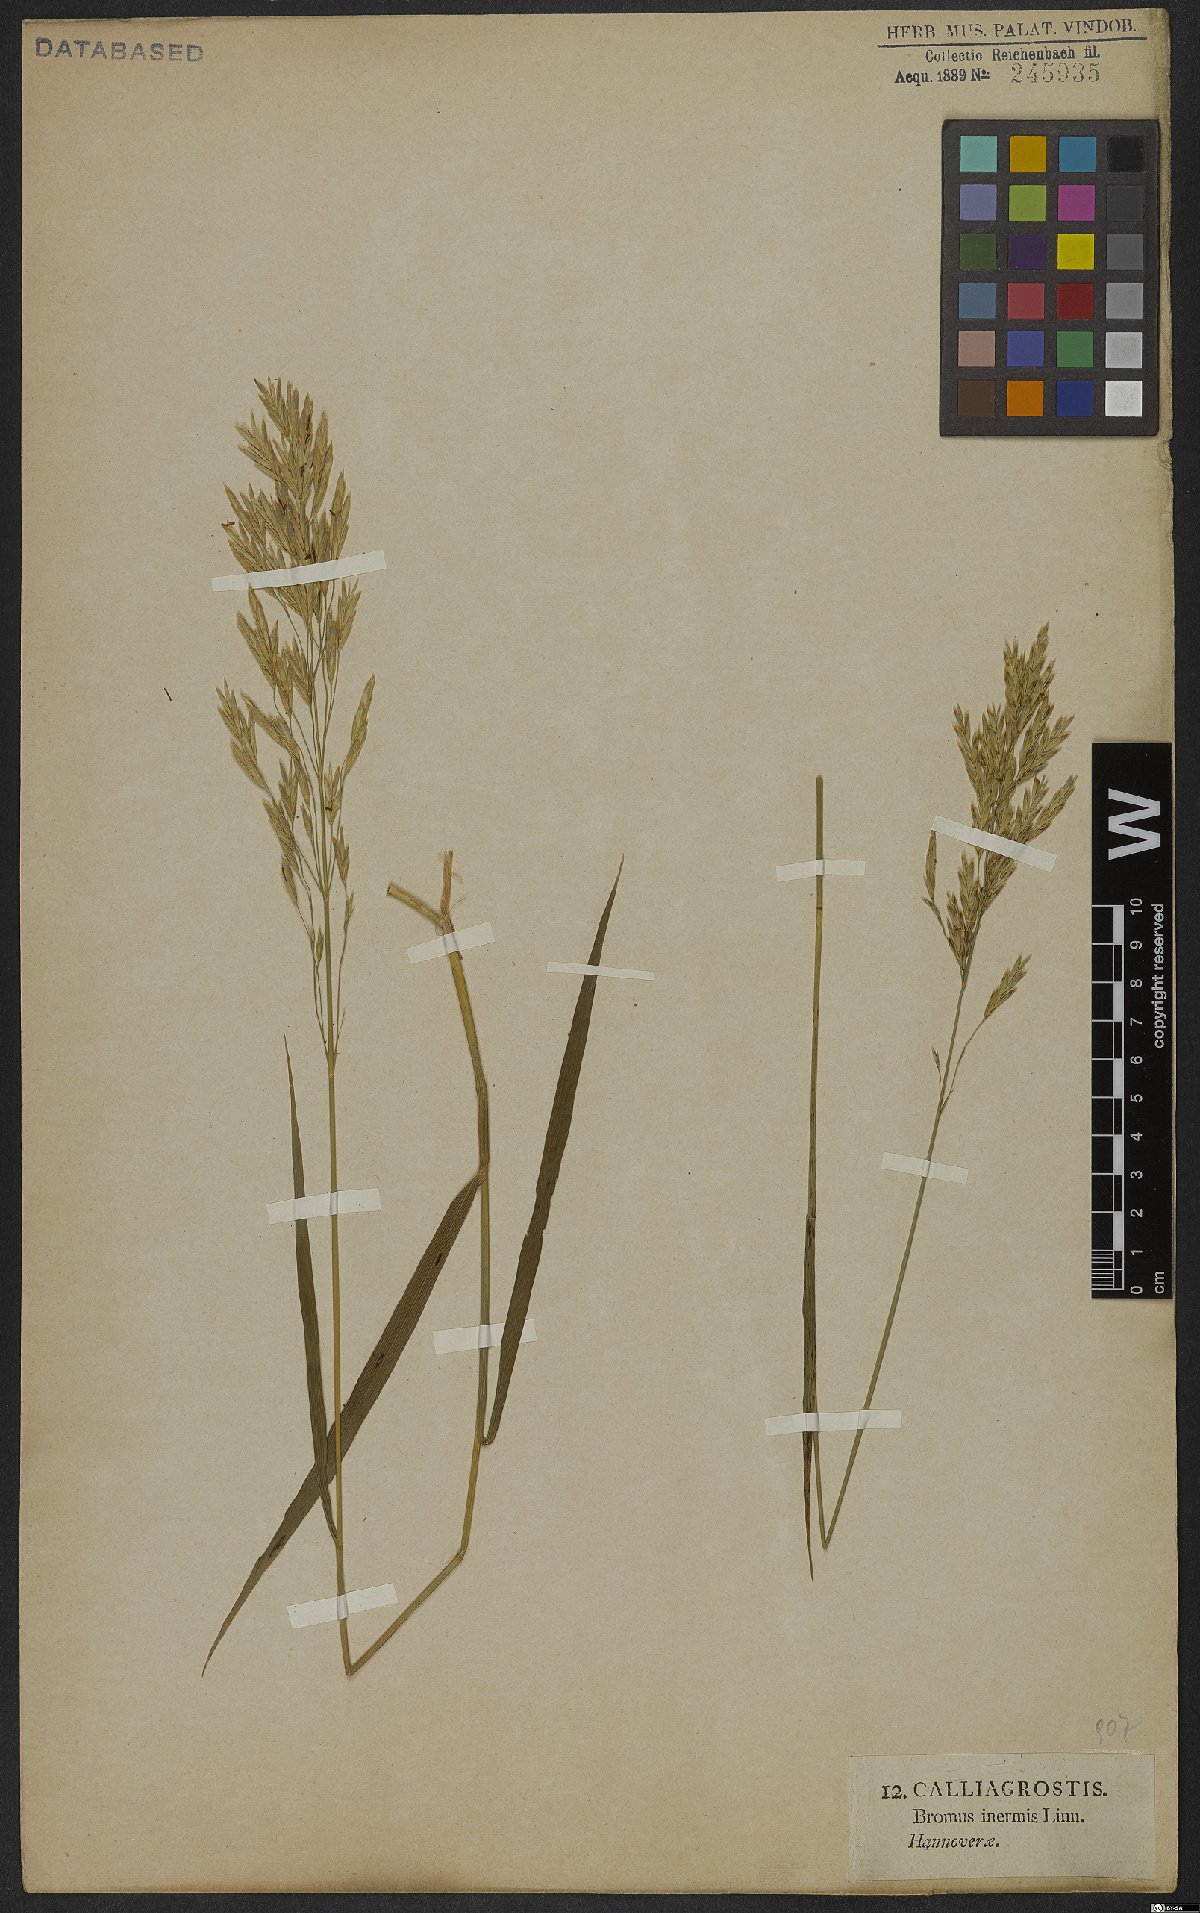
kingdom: Plantae
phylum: Tracheophyta
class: Liliopsida
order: Poales
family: Poaceae
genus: Bromus
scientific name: Bromus inermis
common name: Smooth brome
